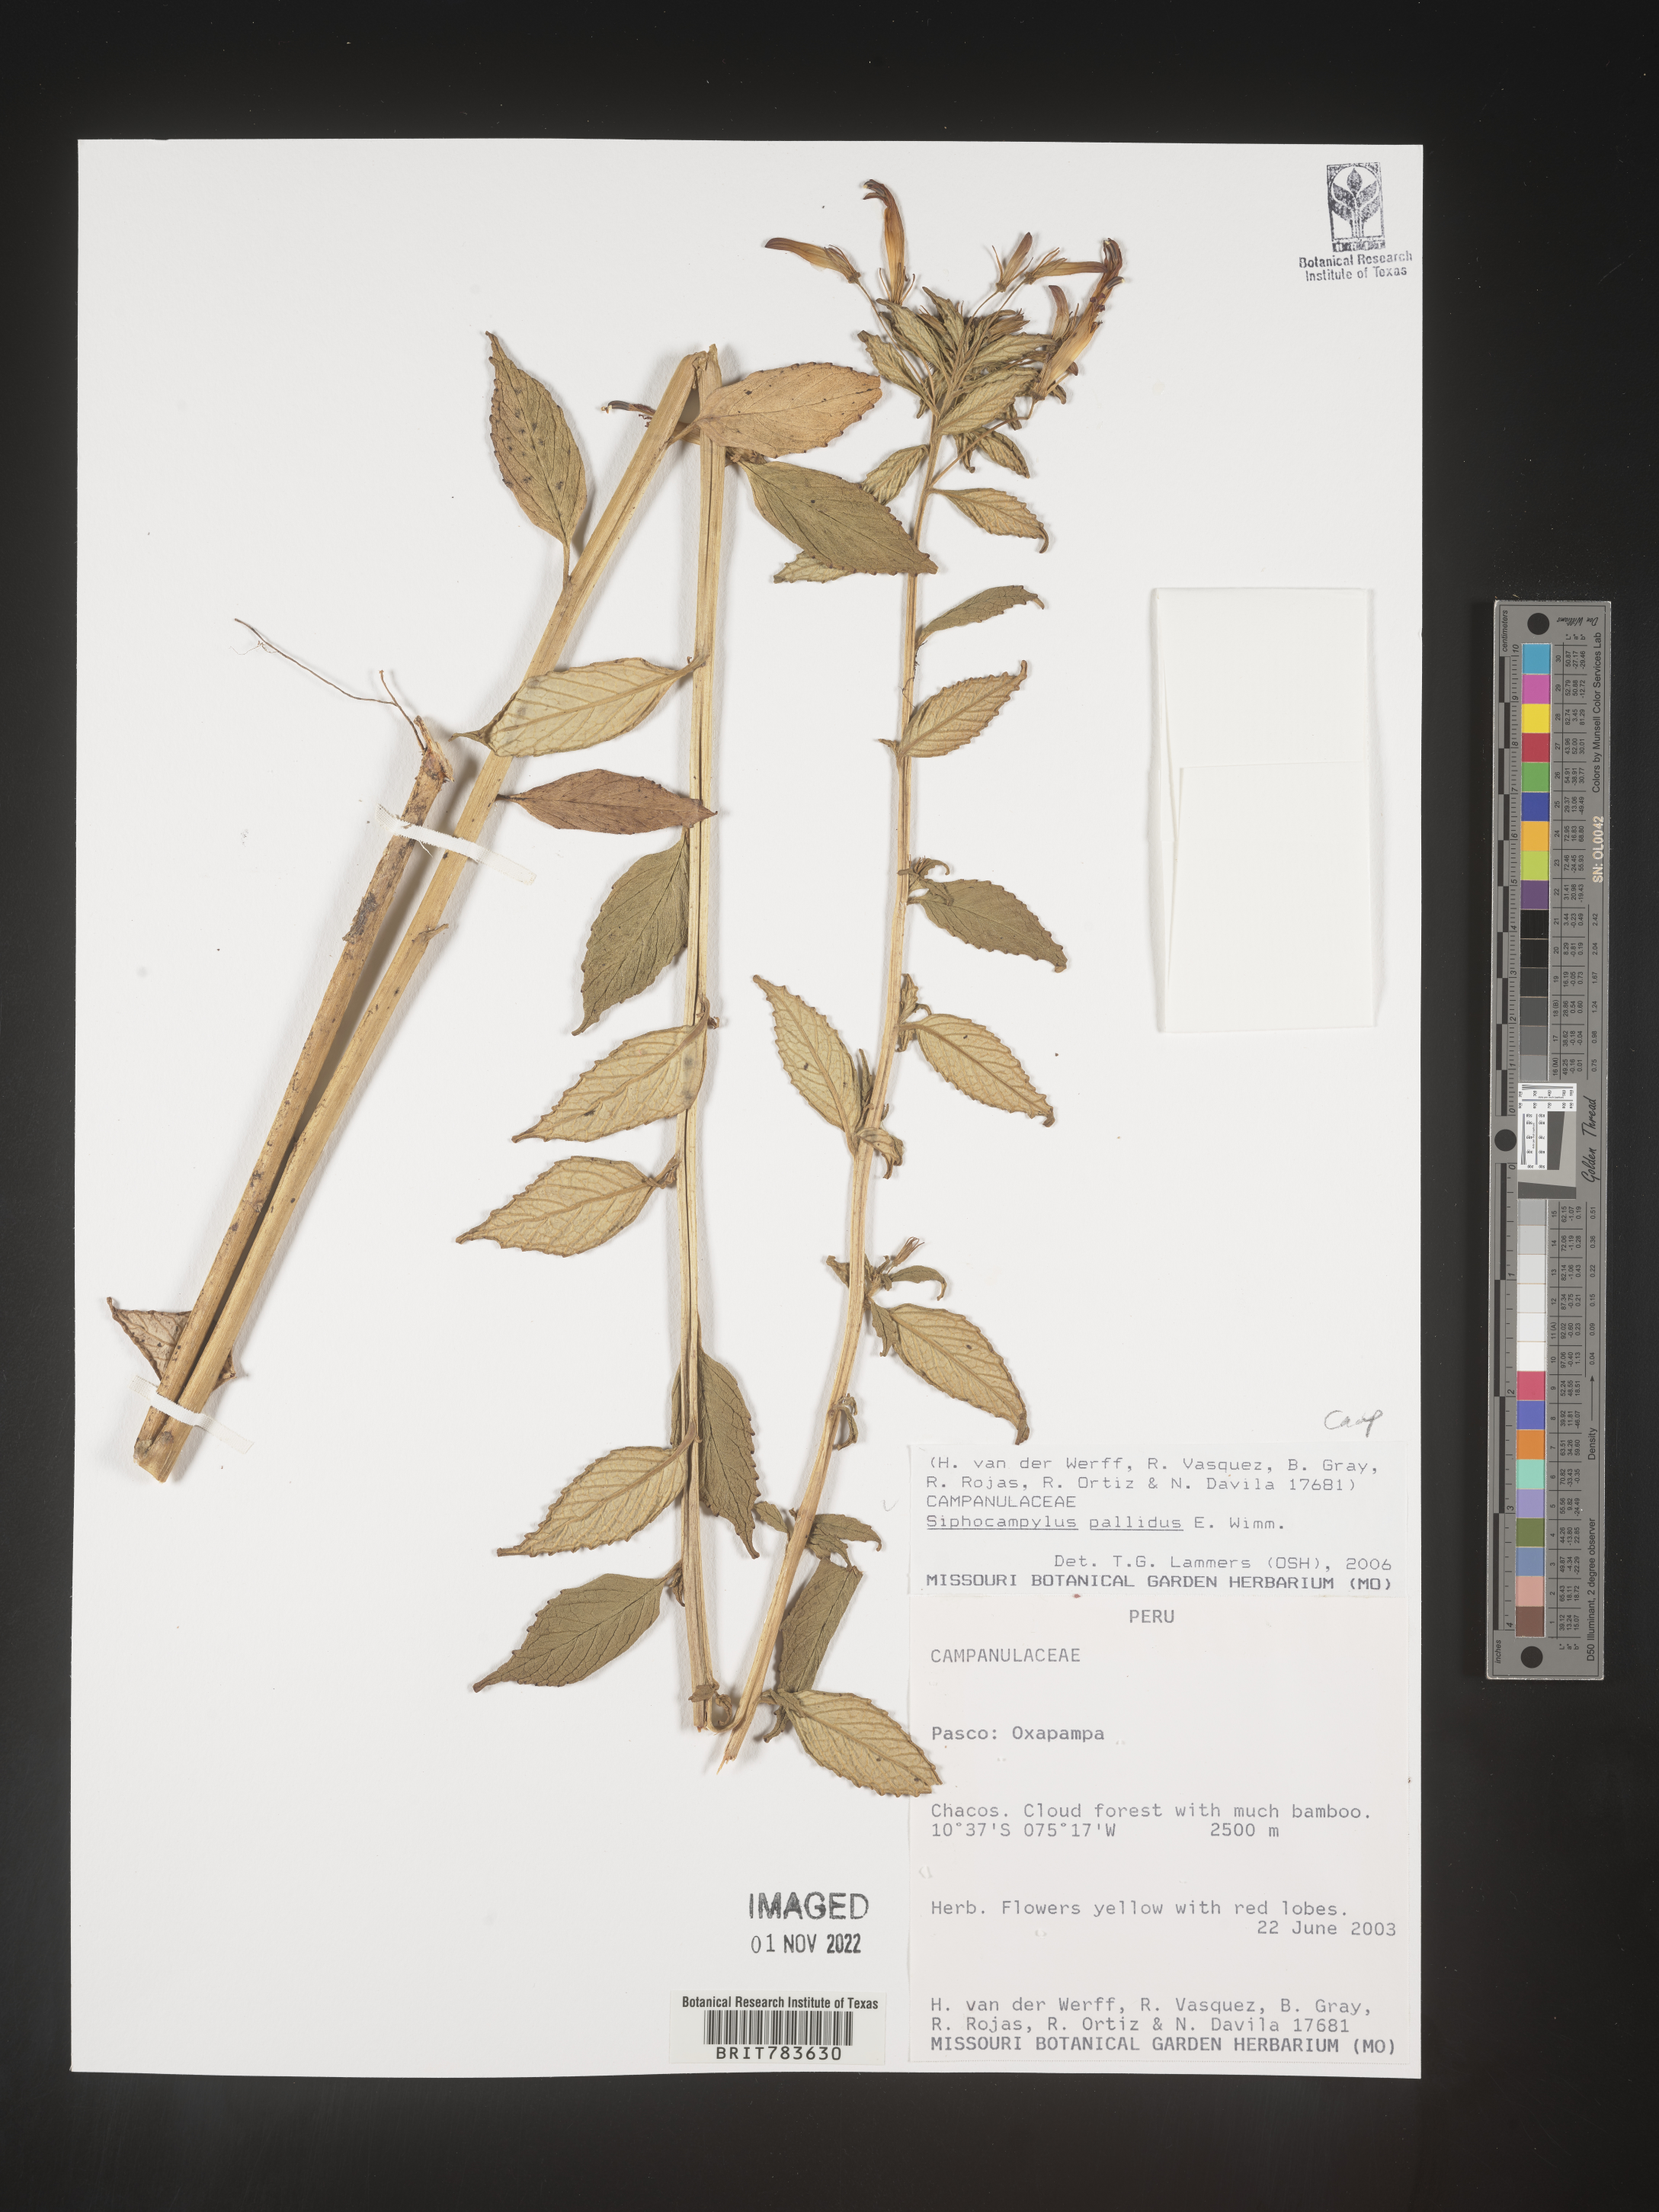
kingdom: Plantae
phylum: Tracheophyta
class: Magnoliopsida
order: Asterales
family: Campanulaceae
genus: Siphocampylus
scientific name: Siphocampylus
